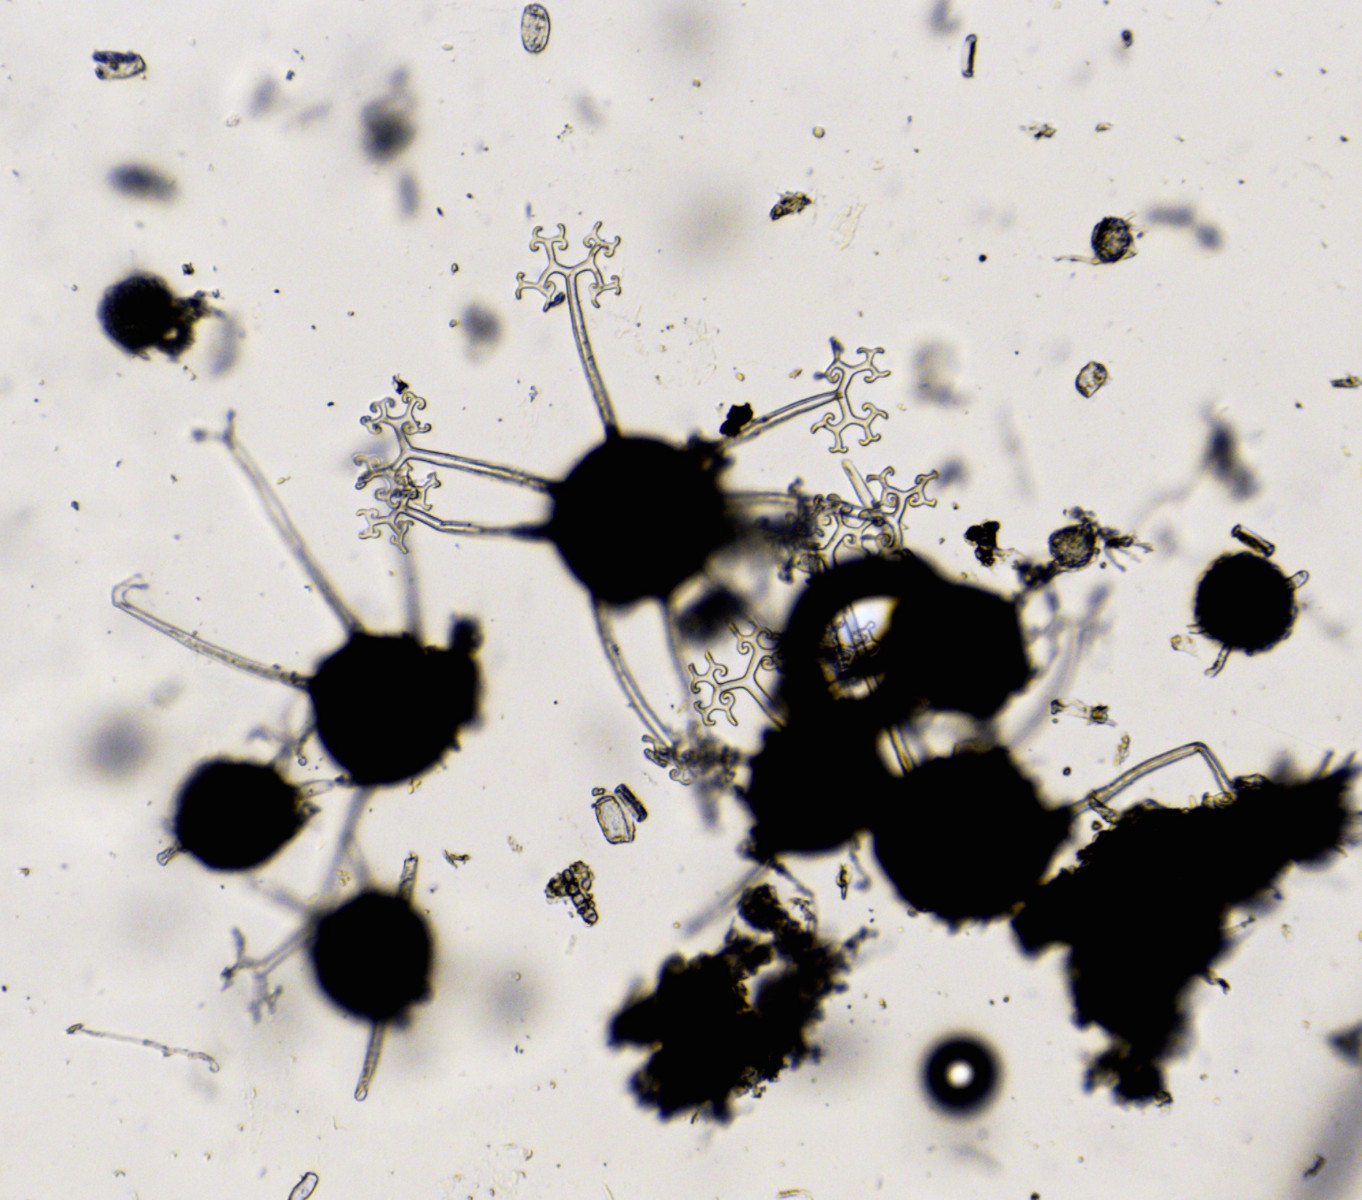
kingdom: Fungi
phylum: Ascomycota
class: Leotiomycetes
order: Helotiales
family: Erysiphaceae
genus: Erysiphe
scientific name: Erysiphe syringae-japonicae
